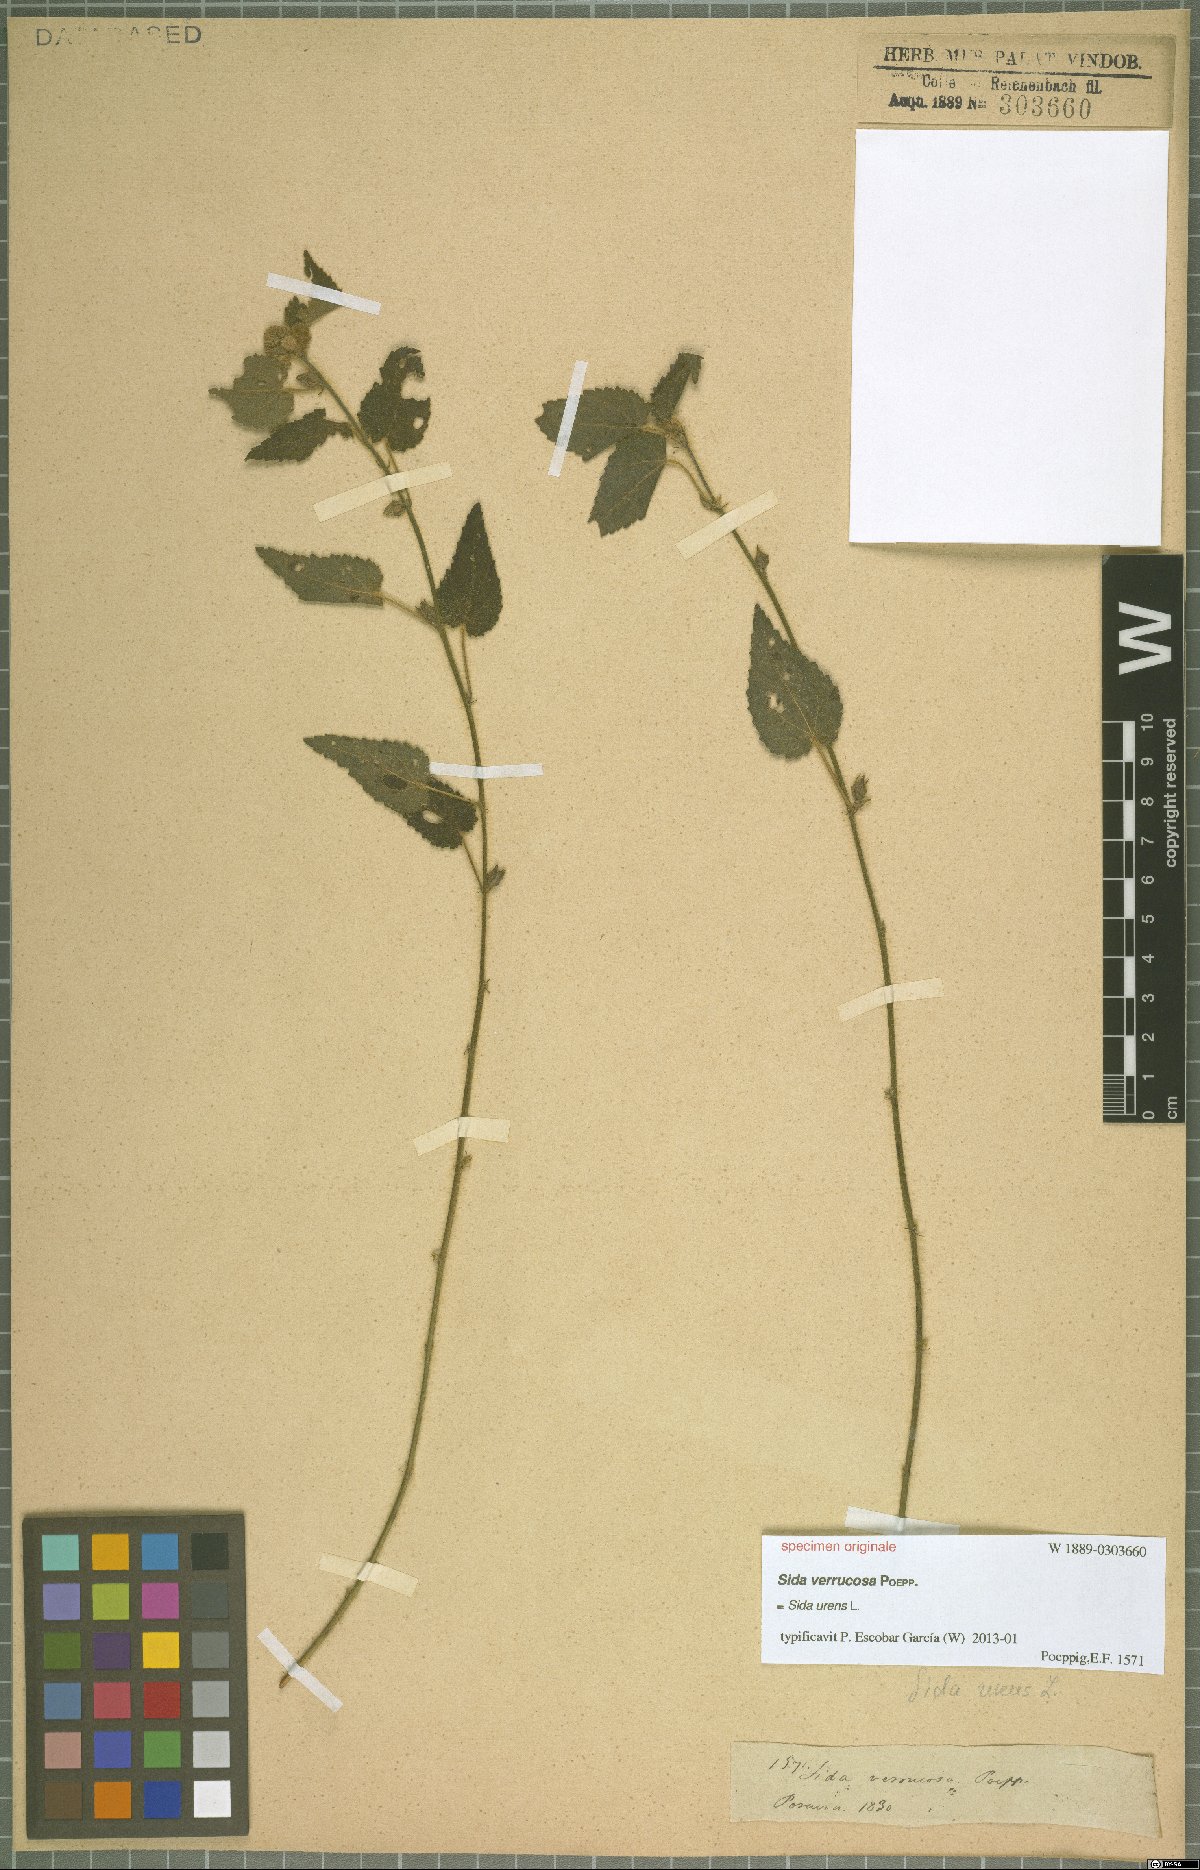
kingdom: Plantae
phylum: Tracheophyta
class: Magnoliopsida
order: Malvales
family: Malvaceae
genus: Sida
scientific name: Sida urens
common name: Tropical fanpetals
